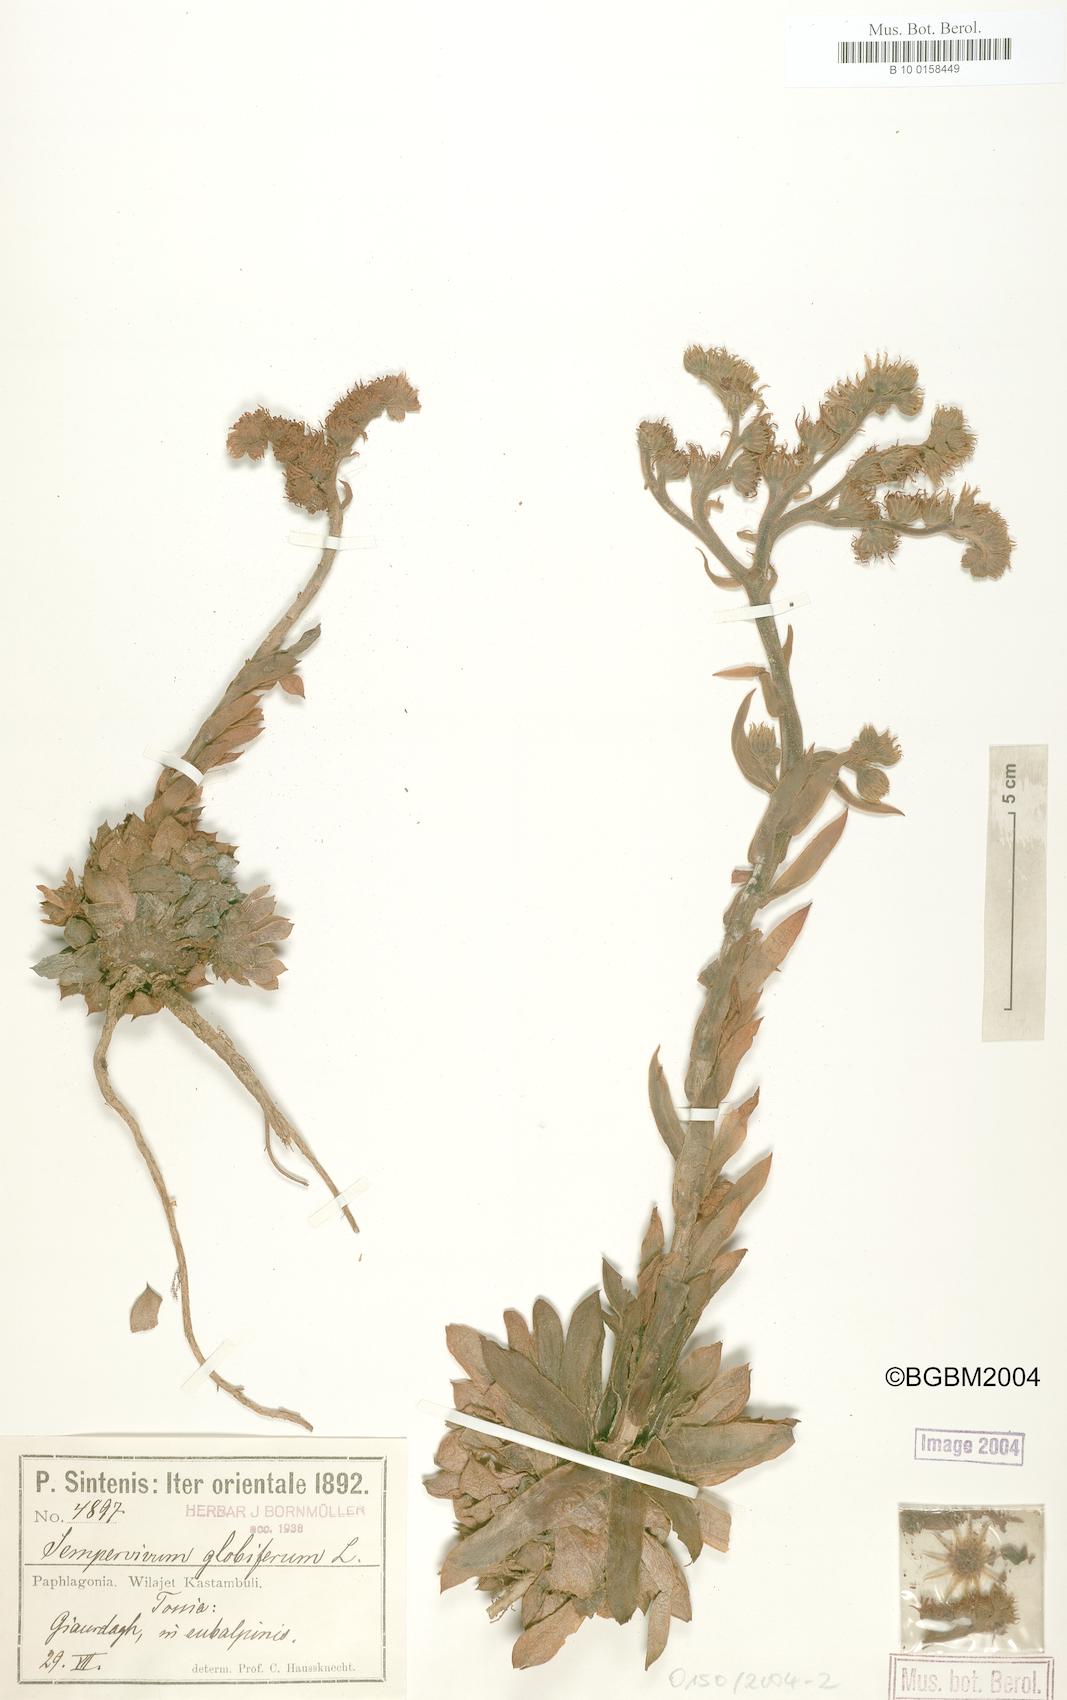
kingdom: Plantae
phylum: Tracheophyta
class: Magnoliopsida
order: Saxifragales
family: Crassulaceae
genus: Sempervivum
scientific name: Sempervivum globiferum
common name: Rolling hen-and-chicks
